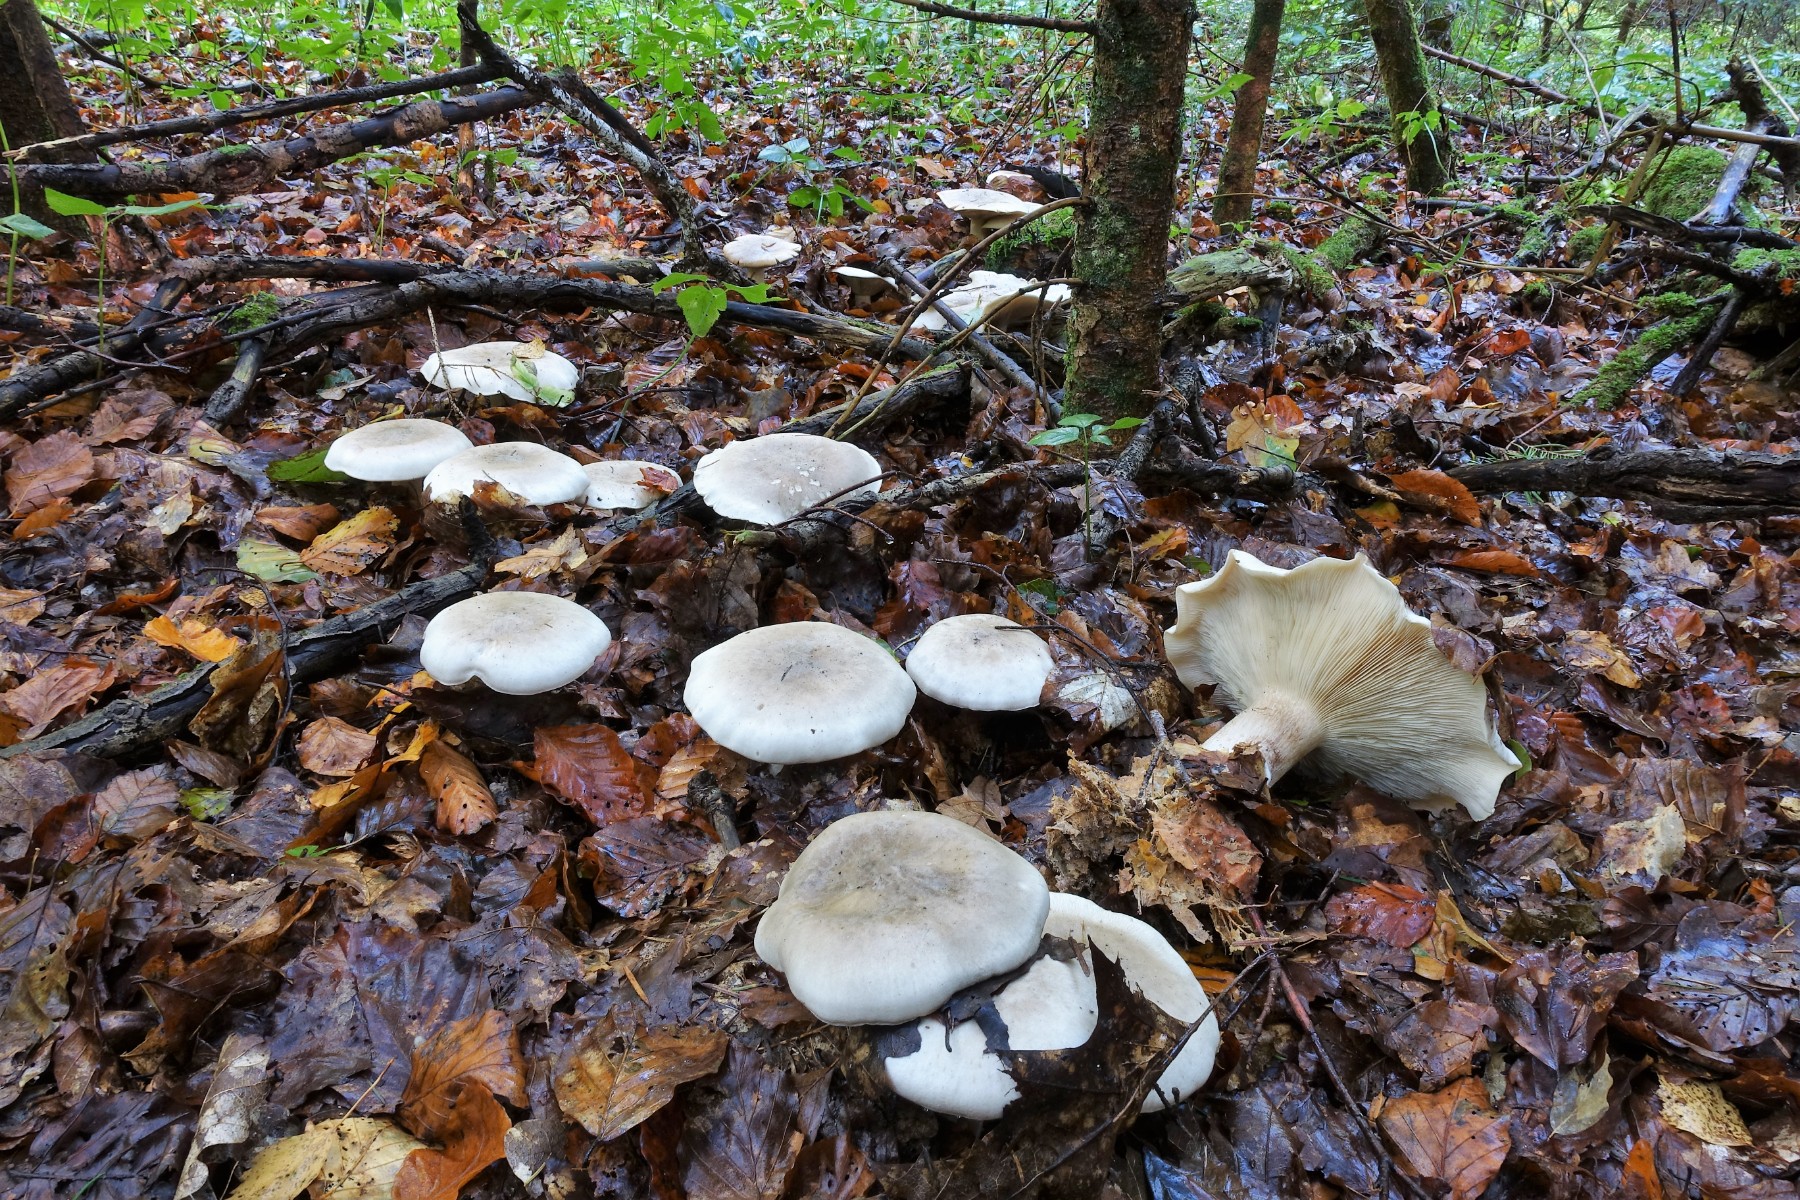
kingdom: Fungi
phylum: Basidiomycota
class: Agaricomycetes
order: Agaricales
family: Tricholomataceae
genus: Clitocybe
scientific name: Clitocybe nebularis
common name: tåge-tragthat
